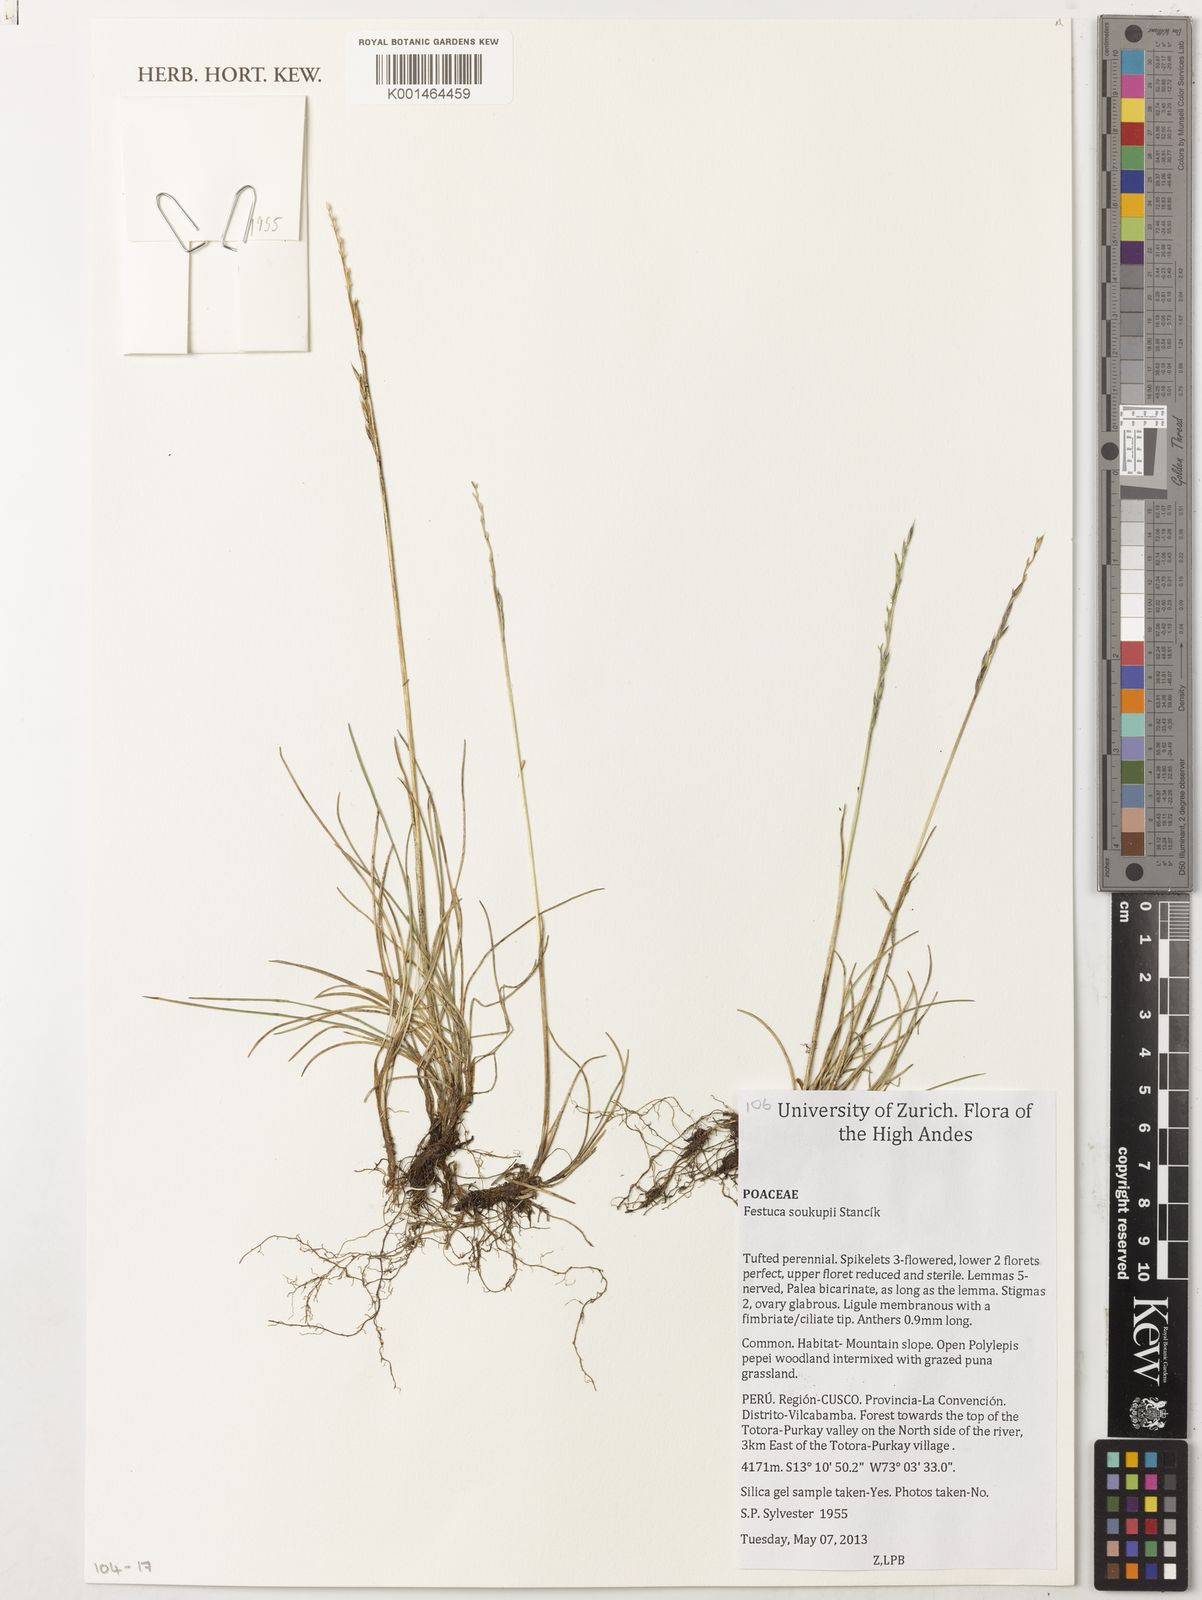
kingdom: Plantae
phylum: Tracheophyta
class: Liliopsida
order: Poales
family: Poaceae
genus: Festuca
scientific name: Festuca
